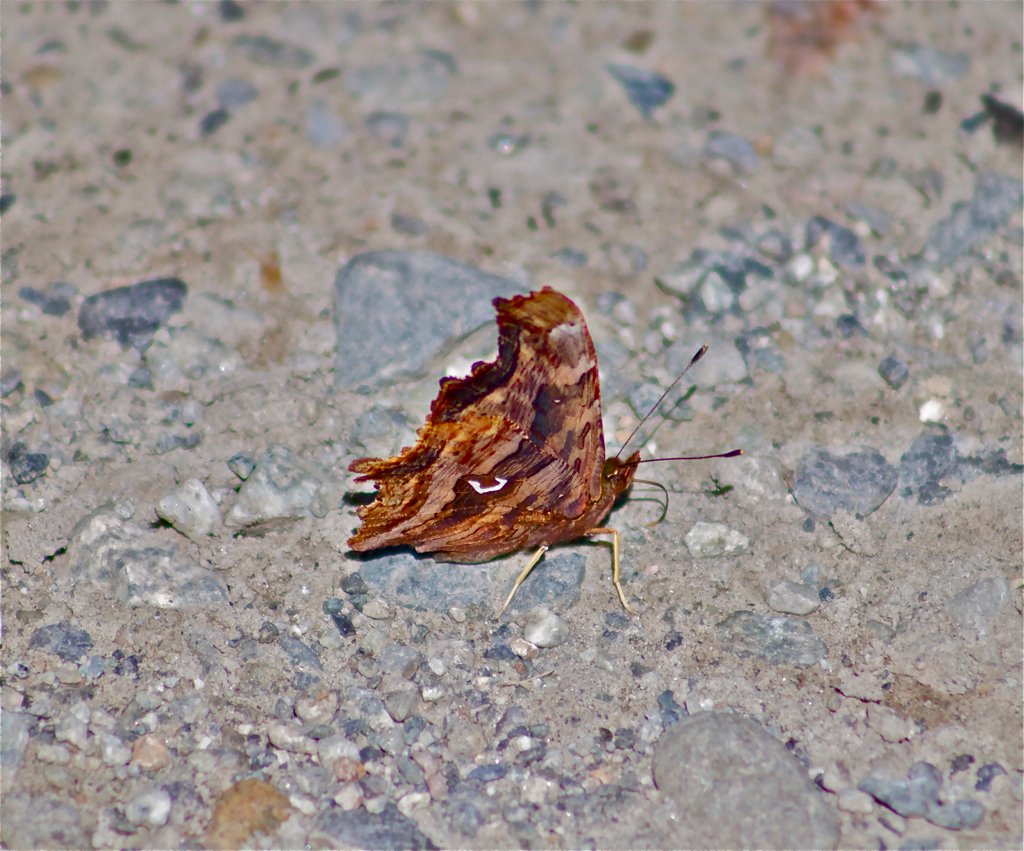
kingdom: Animalia
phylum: Arthropoda
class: Insecta
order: Lepidoptera
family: Nymphalidae
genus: Polygonia
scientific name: Polygonia satyrus
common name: Satyr Comma
